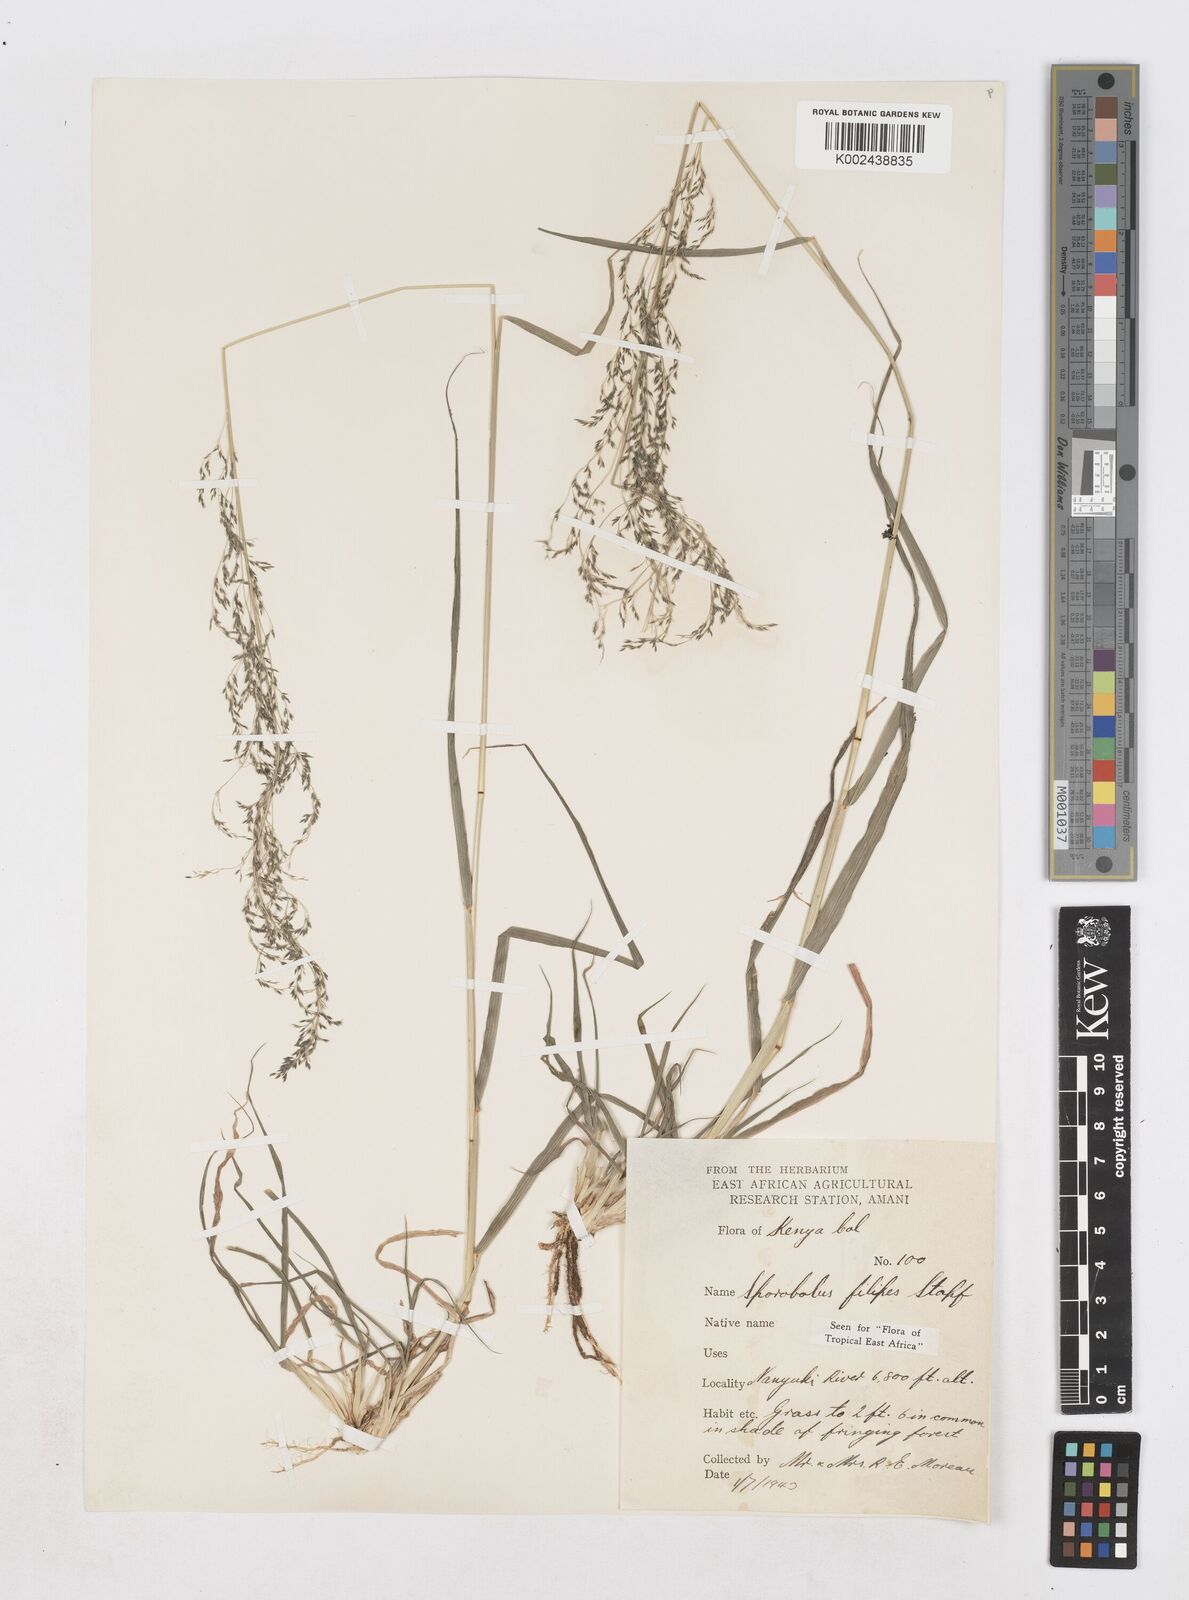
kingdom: Plantae
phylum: Tracheophyta
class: Liliopsida
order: Poales
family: Poaceae
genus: Sporobolus
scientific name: Sporobolus agrostoides
